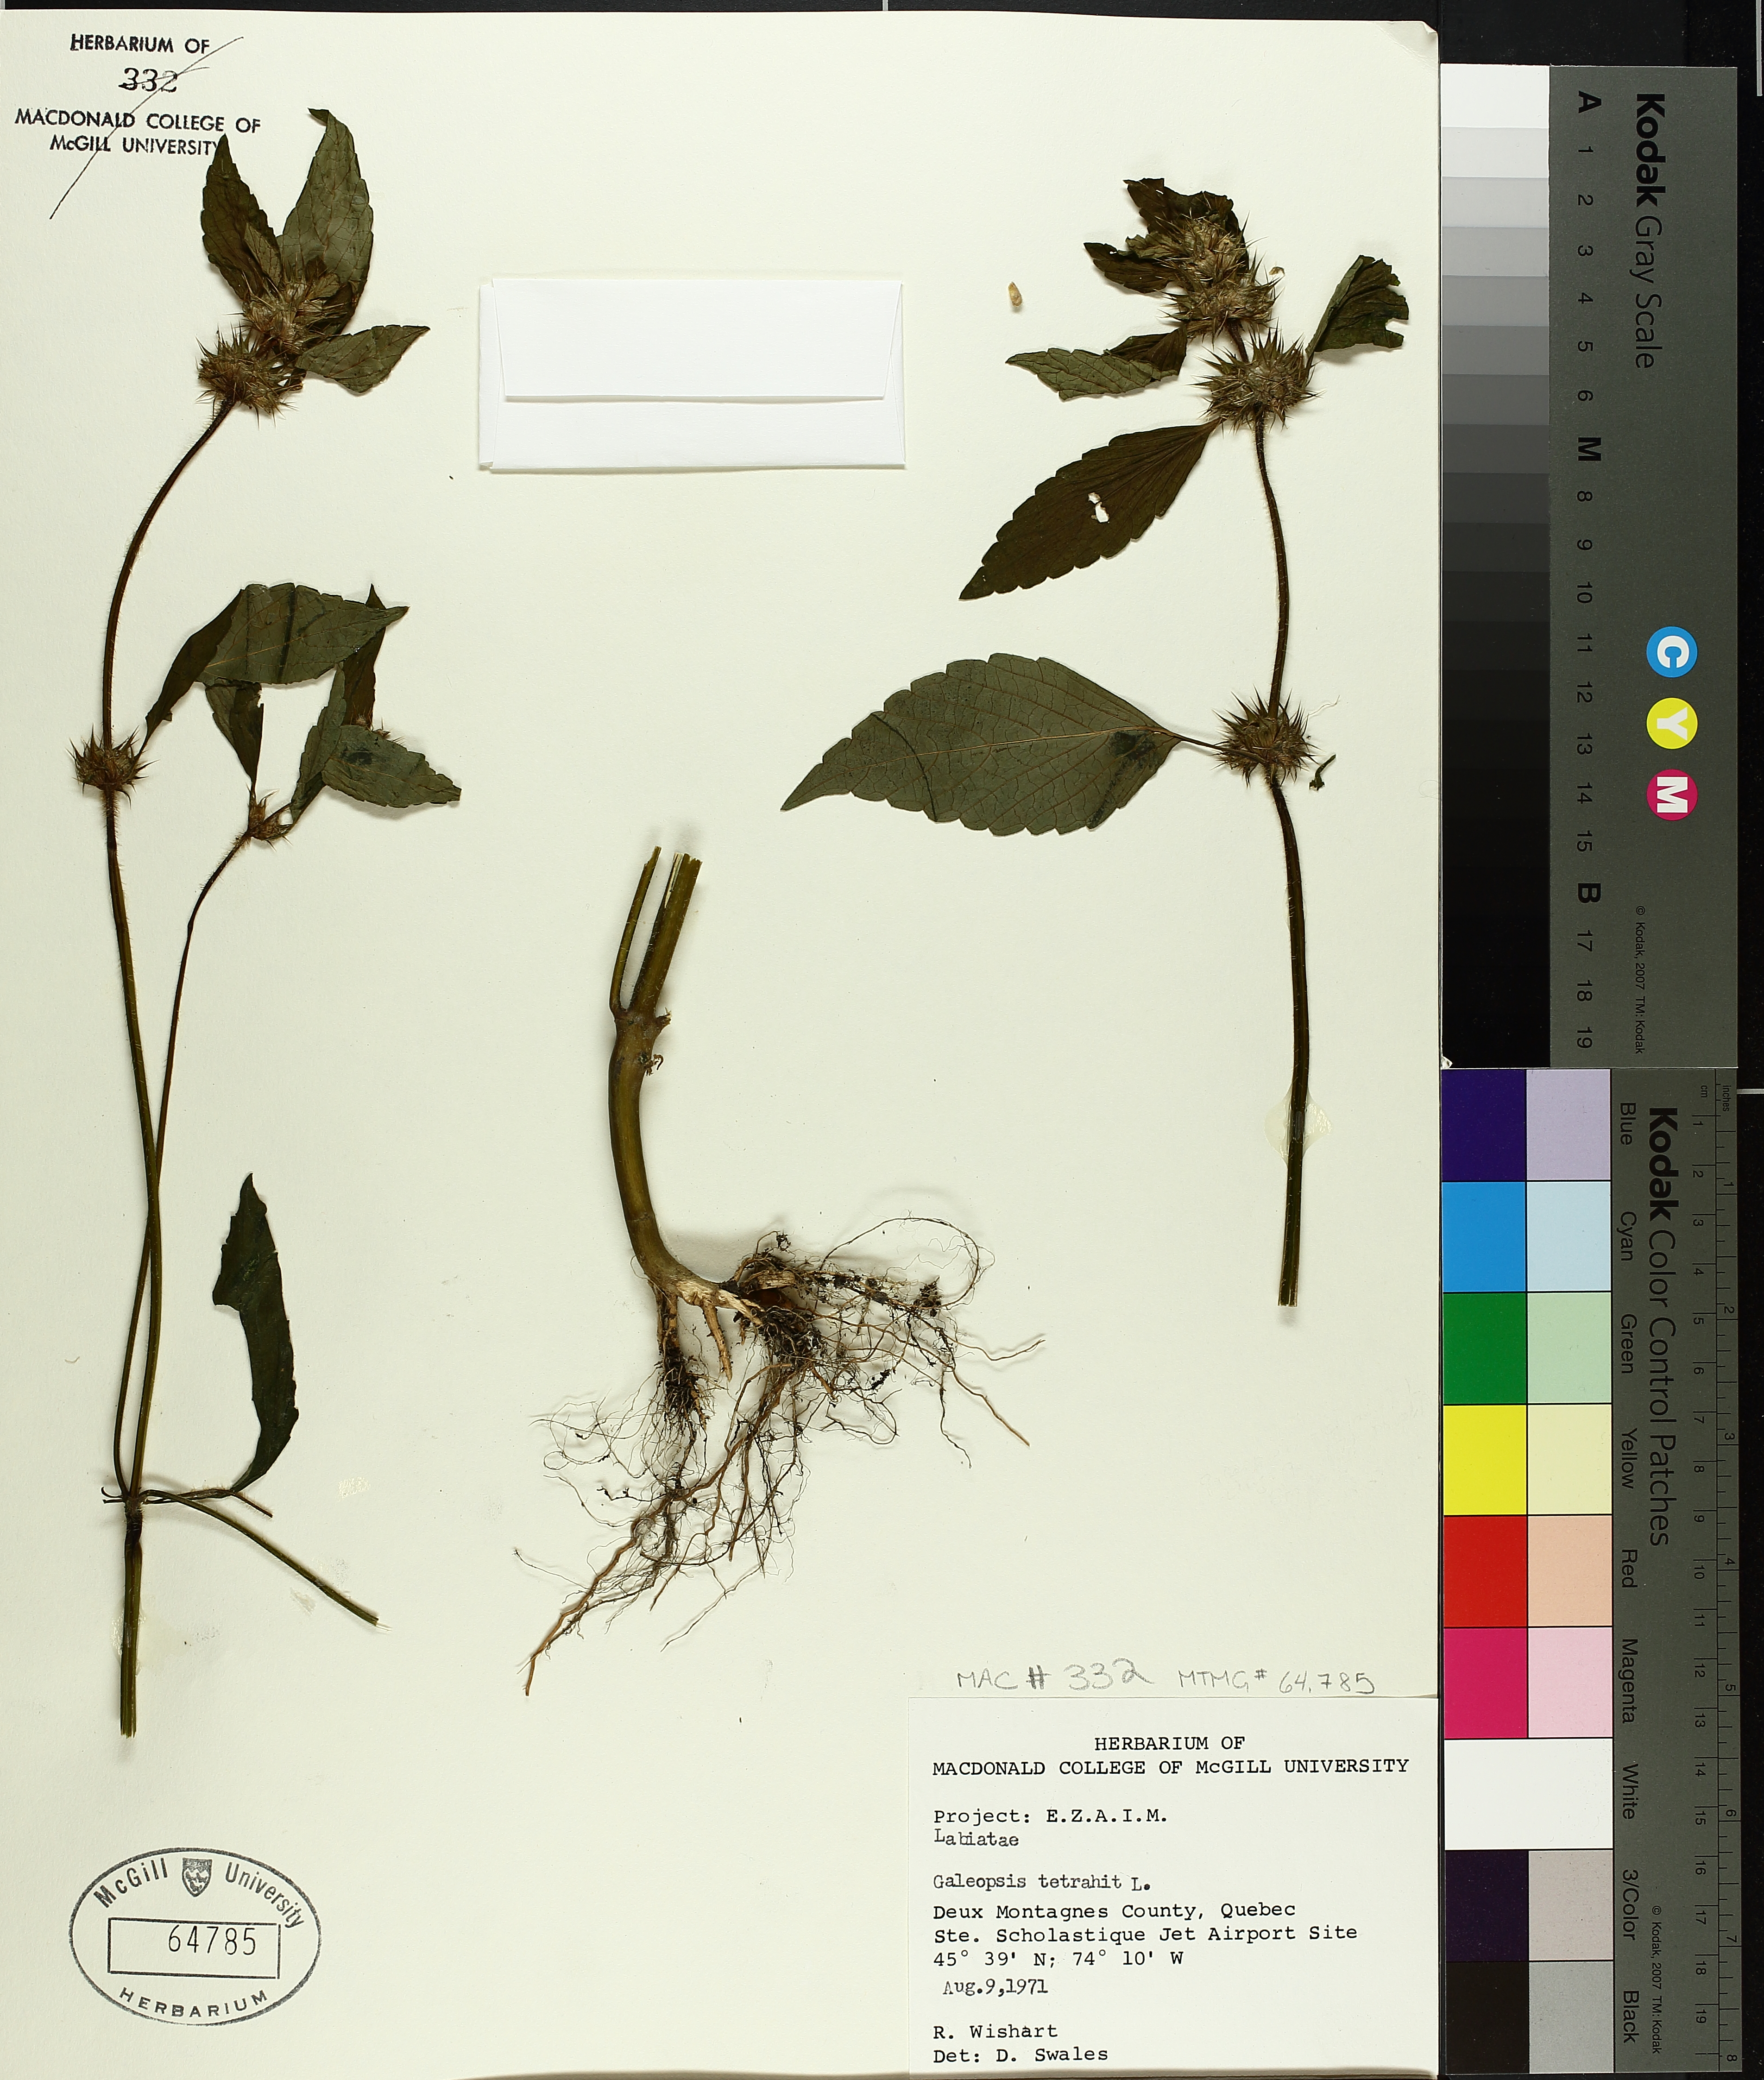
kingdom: Plantae
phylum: Tracheophyta
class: Magnoliopsida
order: Lamiales
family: Lamiaceae
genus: Galeopsis
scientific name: Galeopsis tetrahit
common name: Common hemp-nettle
